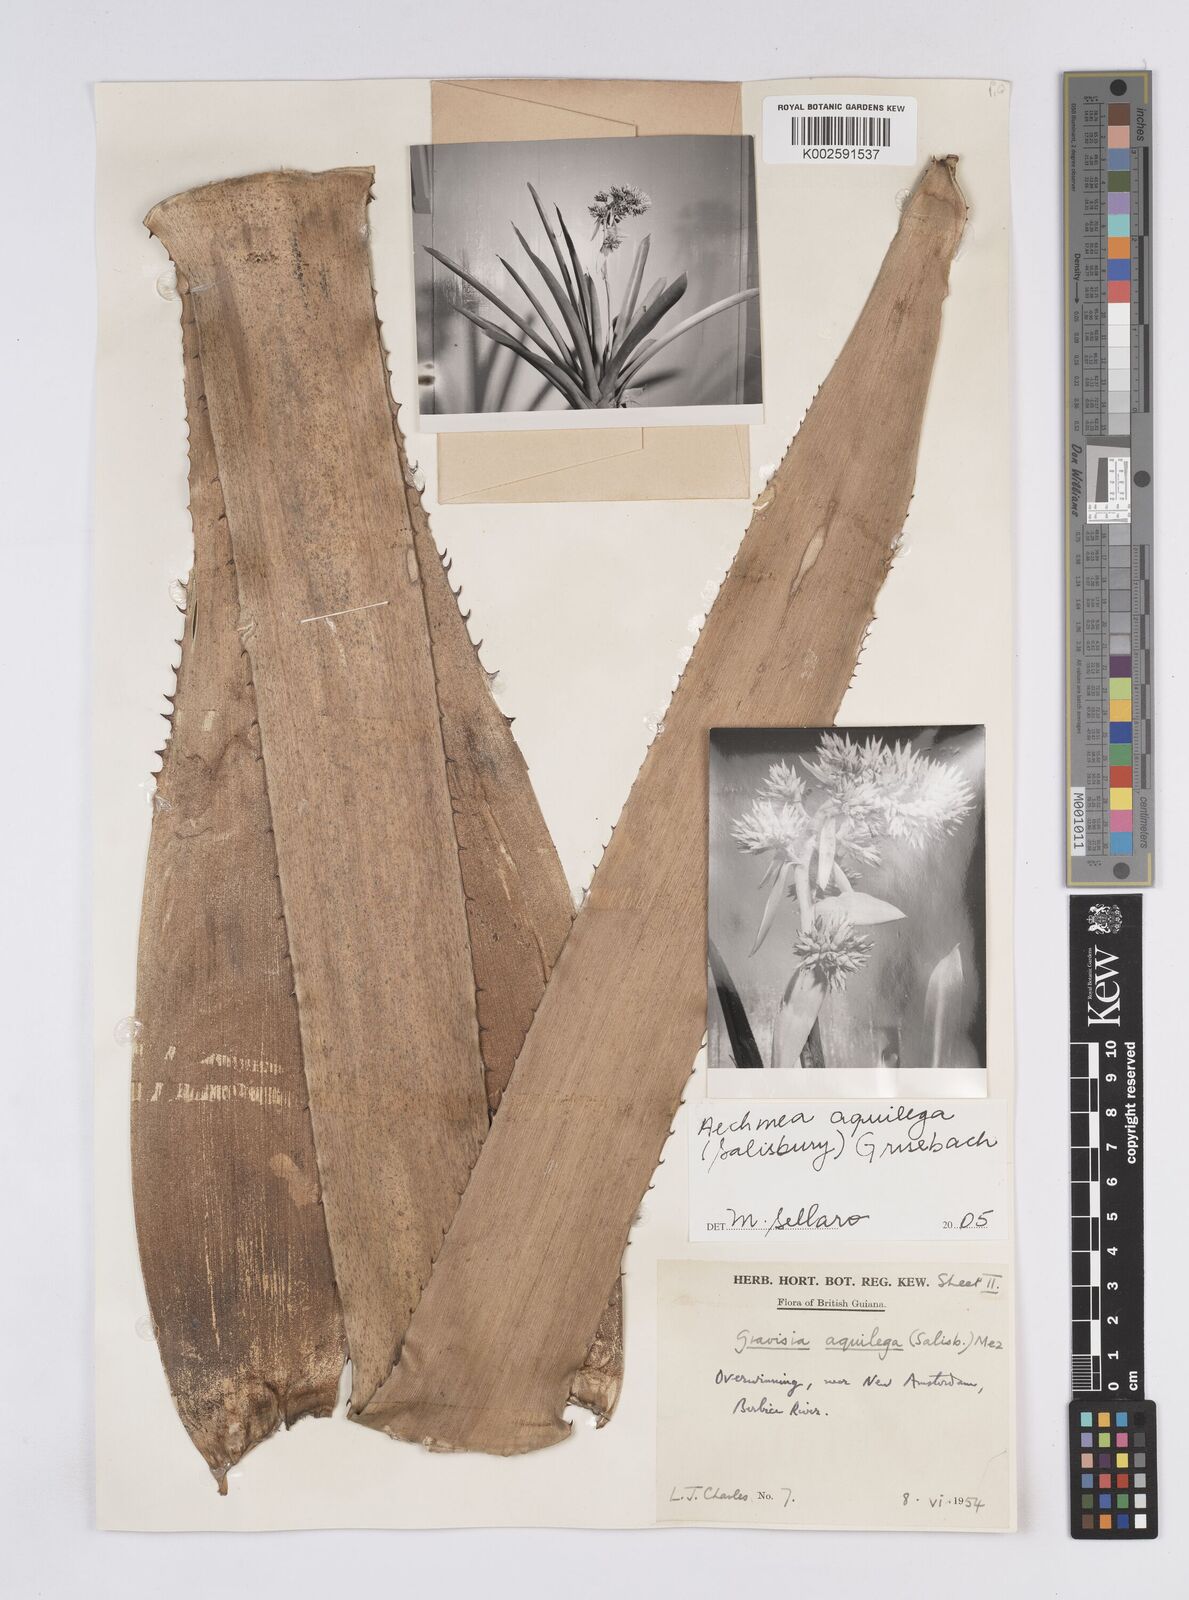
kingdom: Plantae
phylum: Tracheophyta
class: Liliopsida
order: Poales
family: Bromeliaceae
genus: Aechmea
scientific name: Aechmea aquilega
